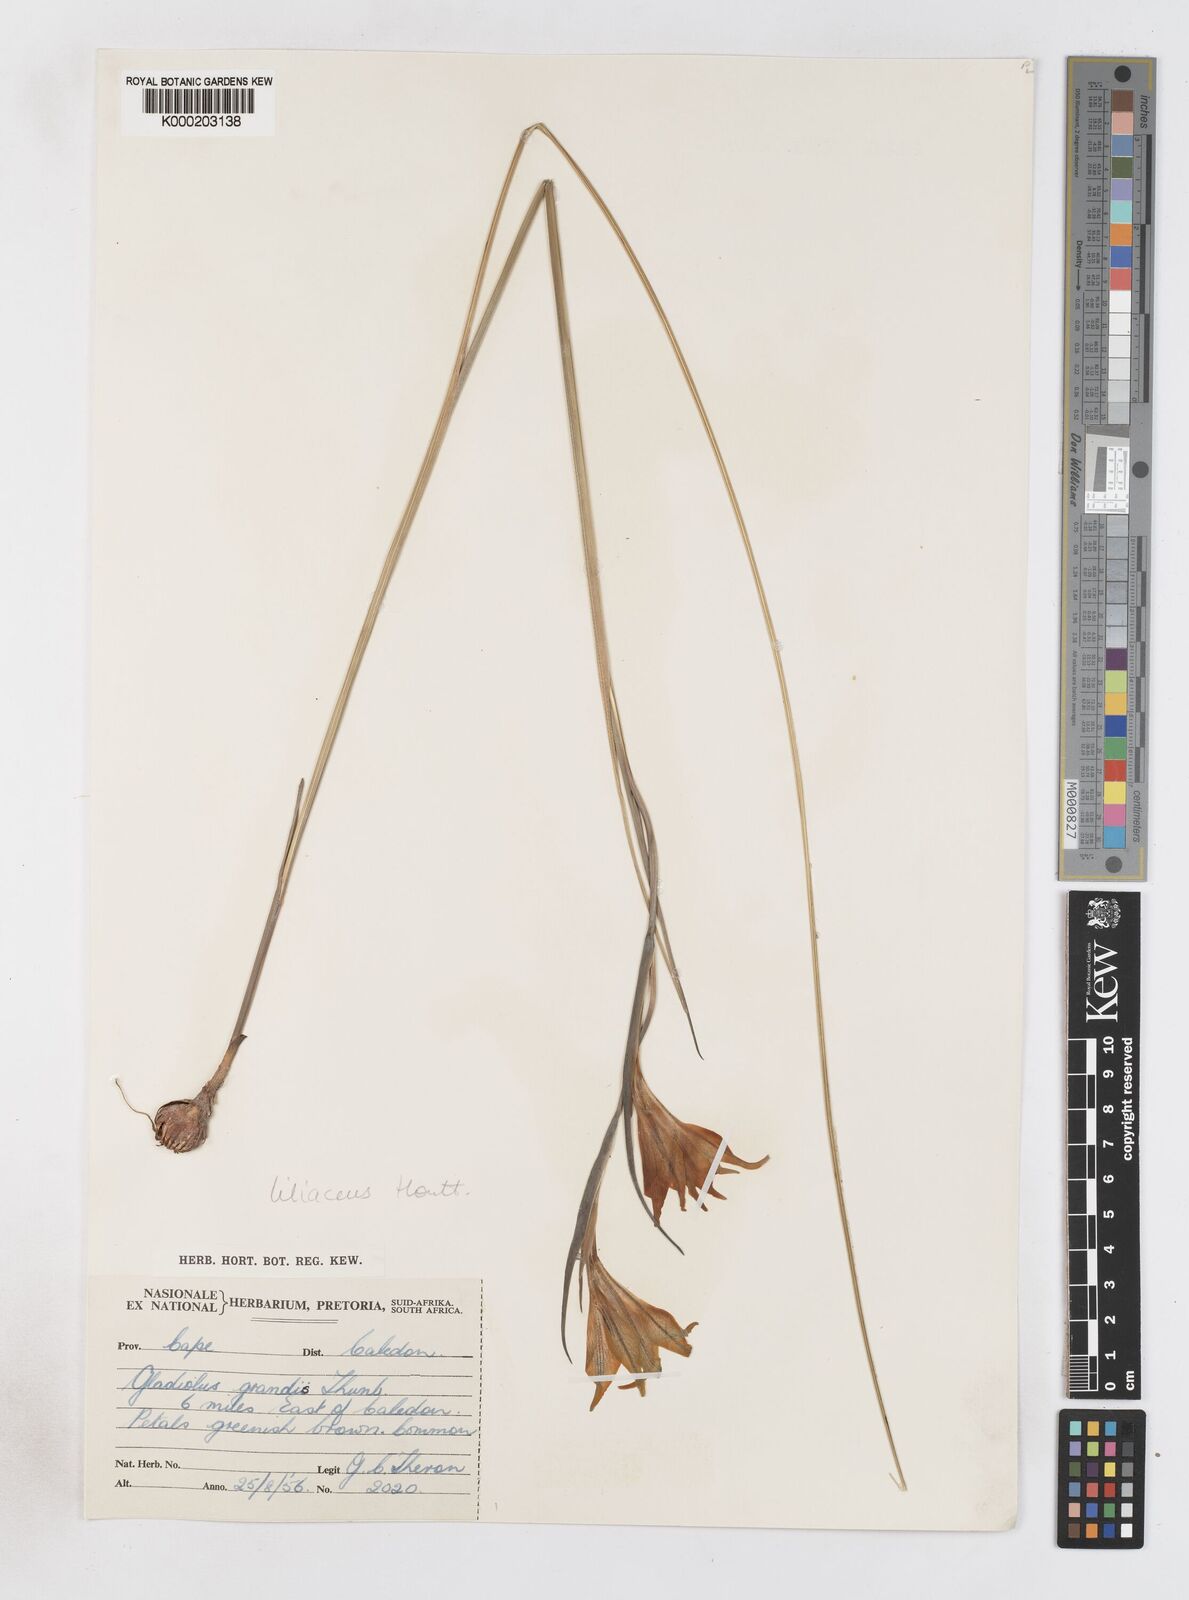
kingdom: Plantae
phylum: Tracheophyta
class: Liliopsida
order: Asparagales
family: Iridaceae
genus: Gladiolus
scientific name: Gladiolus liliaceus
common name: Large brown afrikaner
